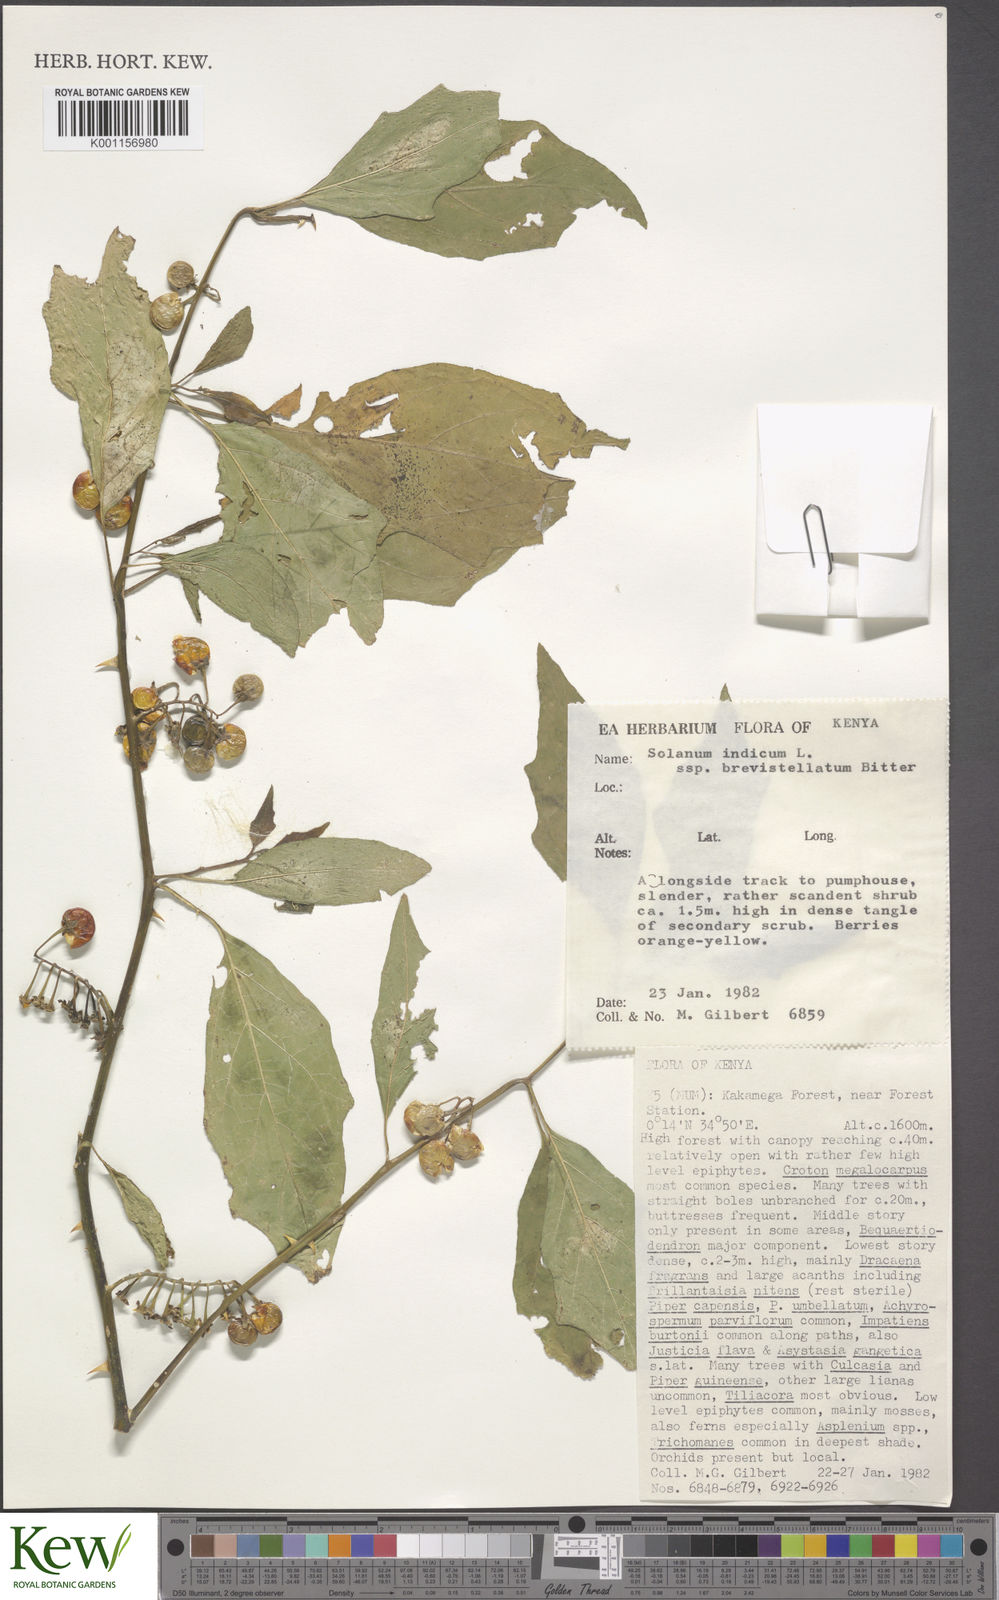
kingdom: Plantae
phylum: Tracheophyta
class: Magnoliopsida
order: Solanales
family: Solanaceae
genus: Solanum
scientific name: Solanum anguivi
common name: Forest bitterberry
